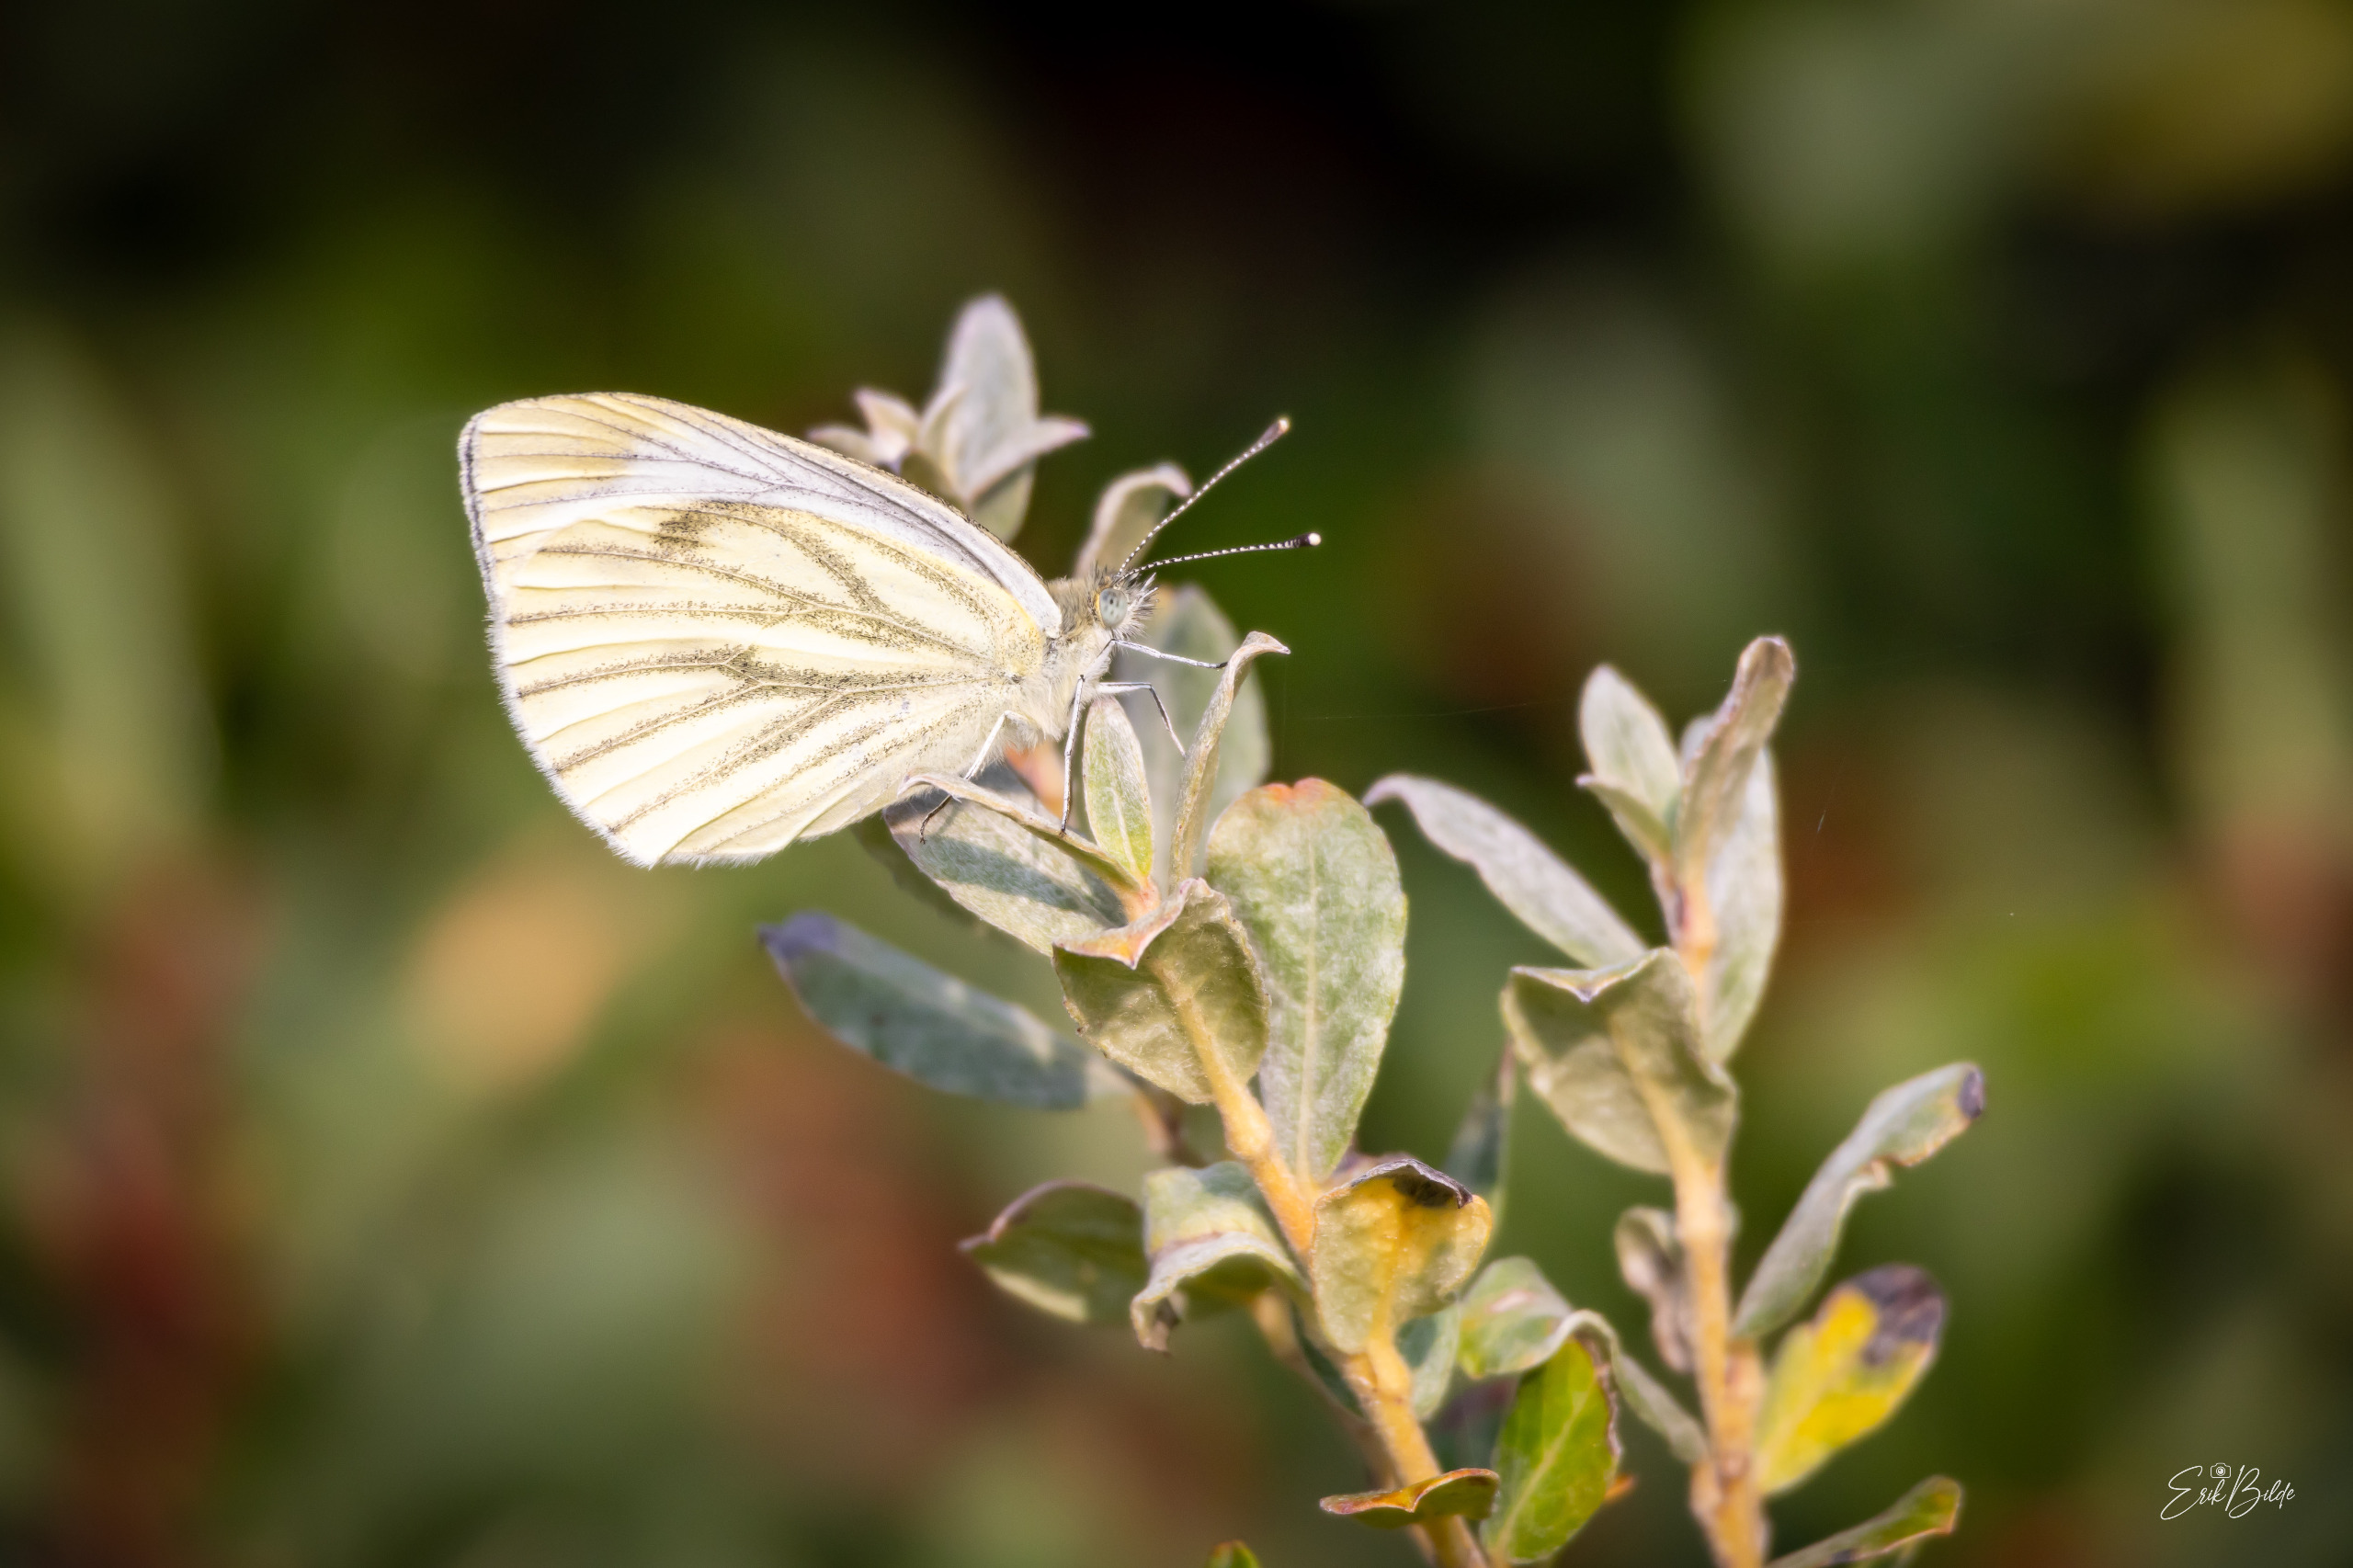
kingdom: Animalia
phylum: Arthropoda
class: Insecta
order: Lepidoptera
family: Pieridae
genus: Pieris
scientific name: Pieris napi
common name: Grønåret kålsommerfugl
